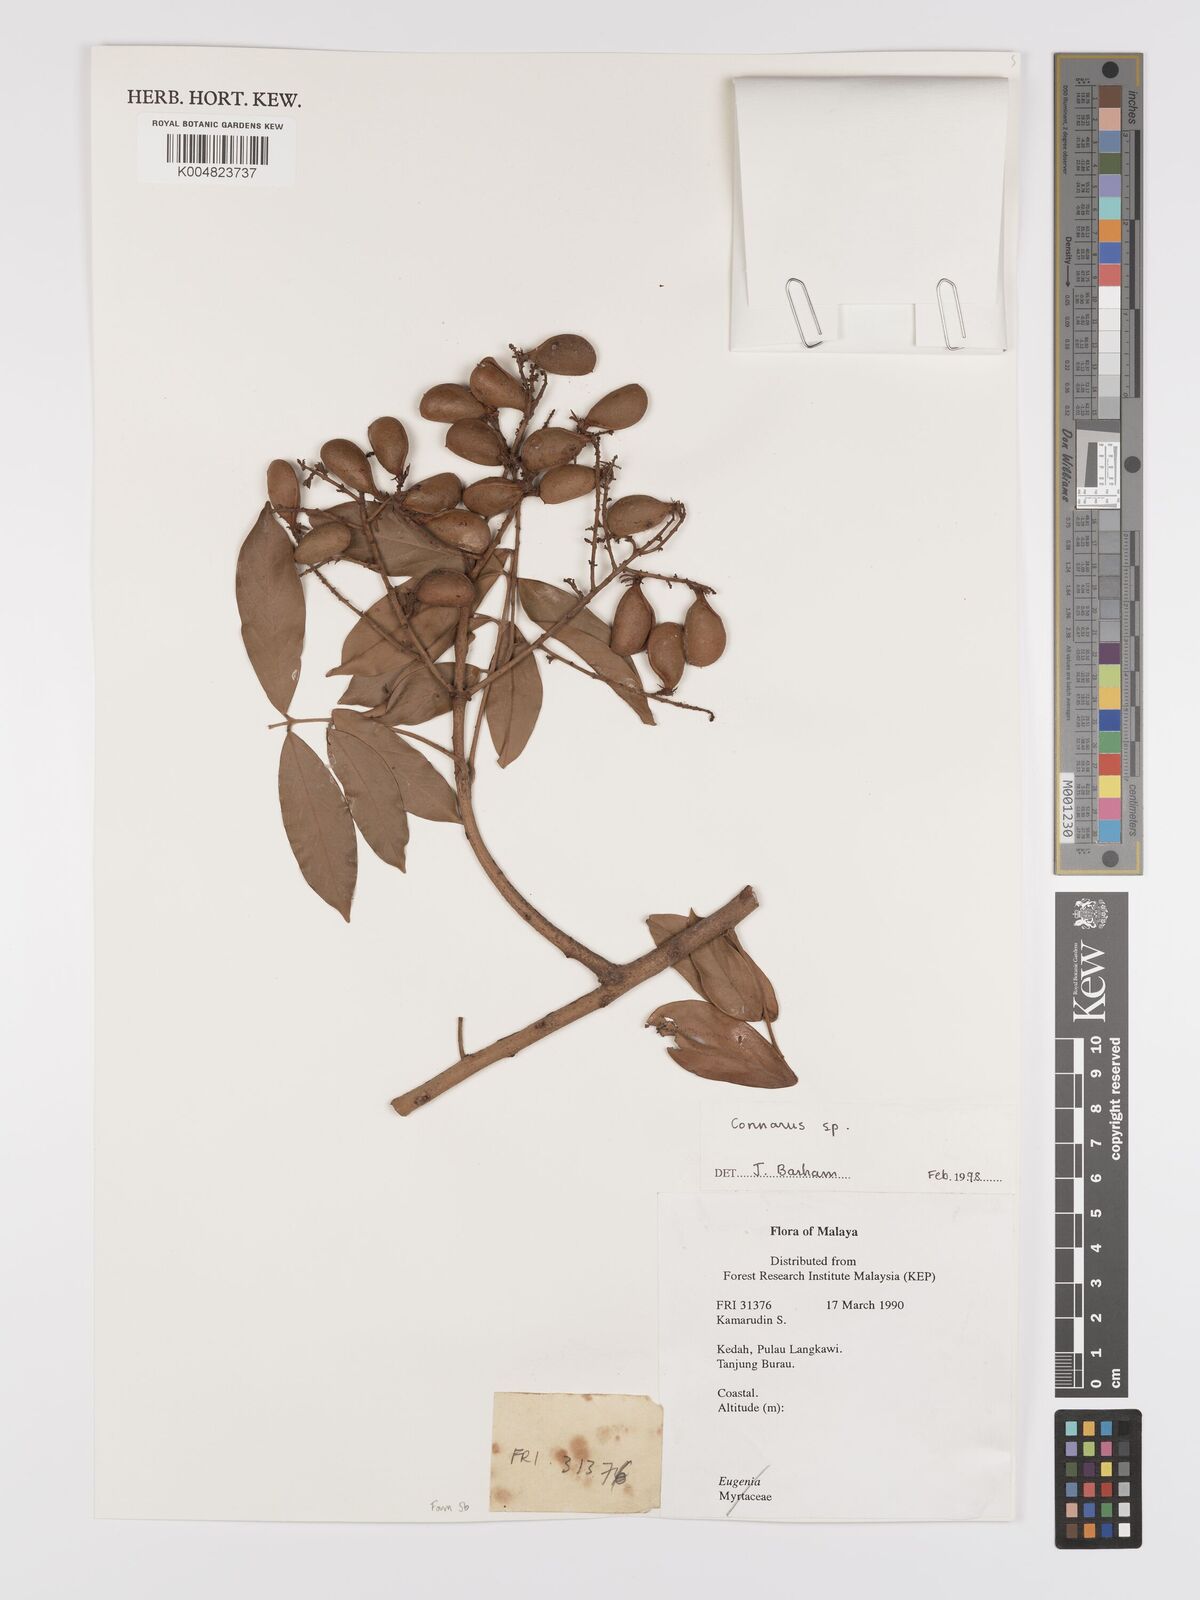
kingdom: Plantae
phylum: Tracheophyta
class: Magnoliopsida
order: Oxalidales
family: Connaraceae
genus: Connarus
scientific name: Connarus
